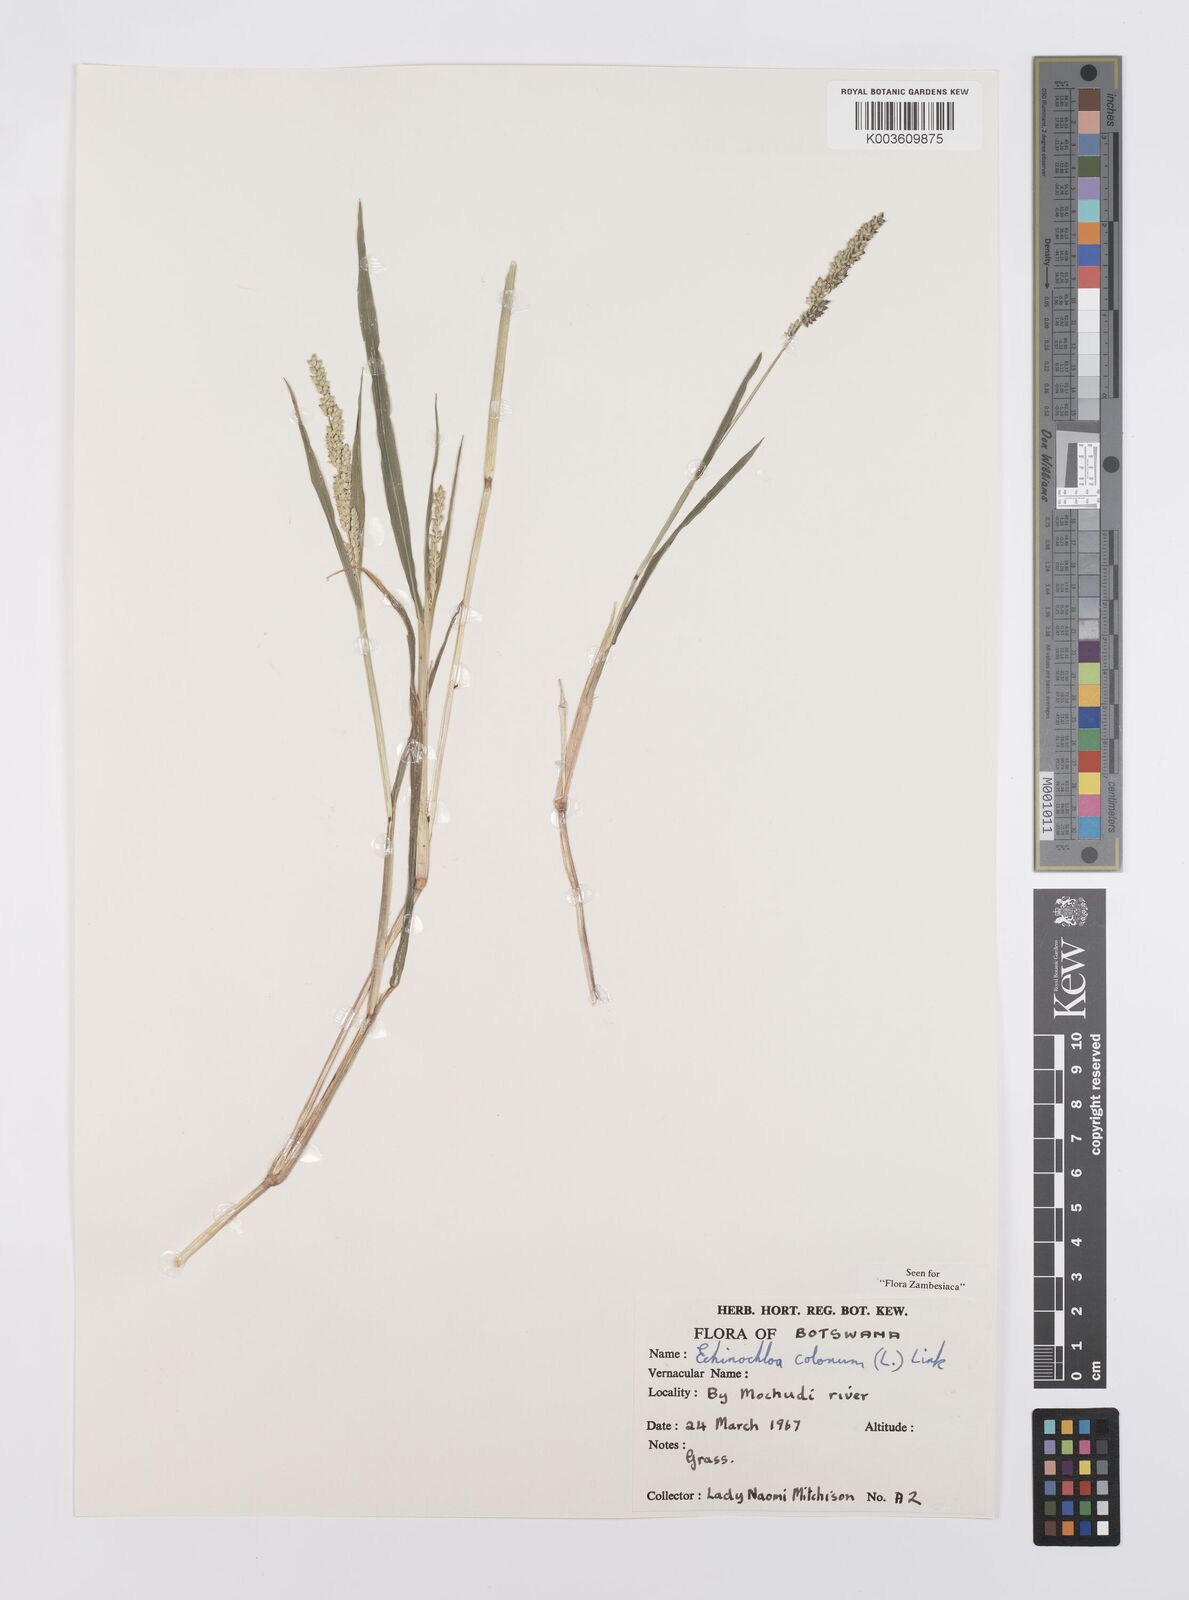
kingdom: Plantae
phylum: Tracheophyta
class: Liliopsida
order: Poales
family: Poaceae
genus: Echinochloa
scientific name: Echinochloa colonum
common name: Jungle rice
